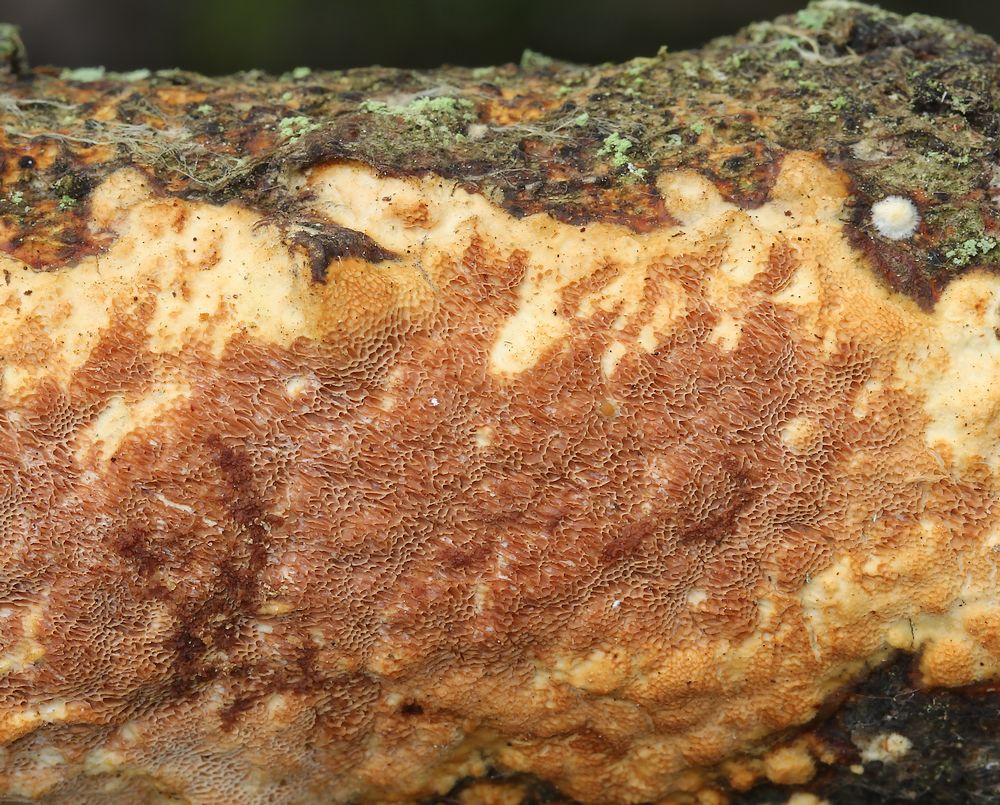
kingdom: Fungi
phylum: Basidiomycota
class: Agaricomycetes
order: Polyporales
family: Irpicaceae
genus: Resiniporus
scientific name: Resiniporus resinascens
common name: trist pastelporesvamp
